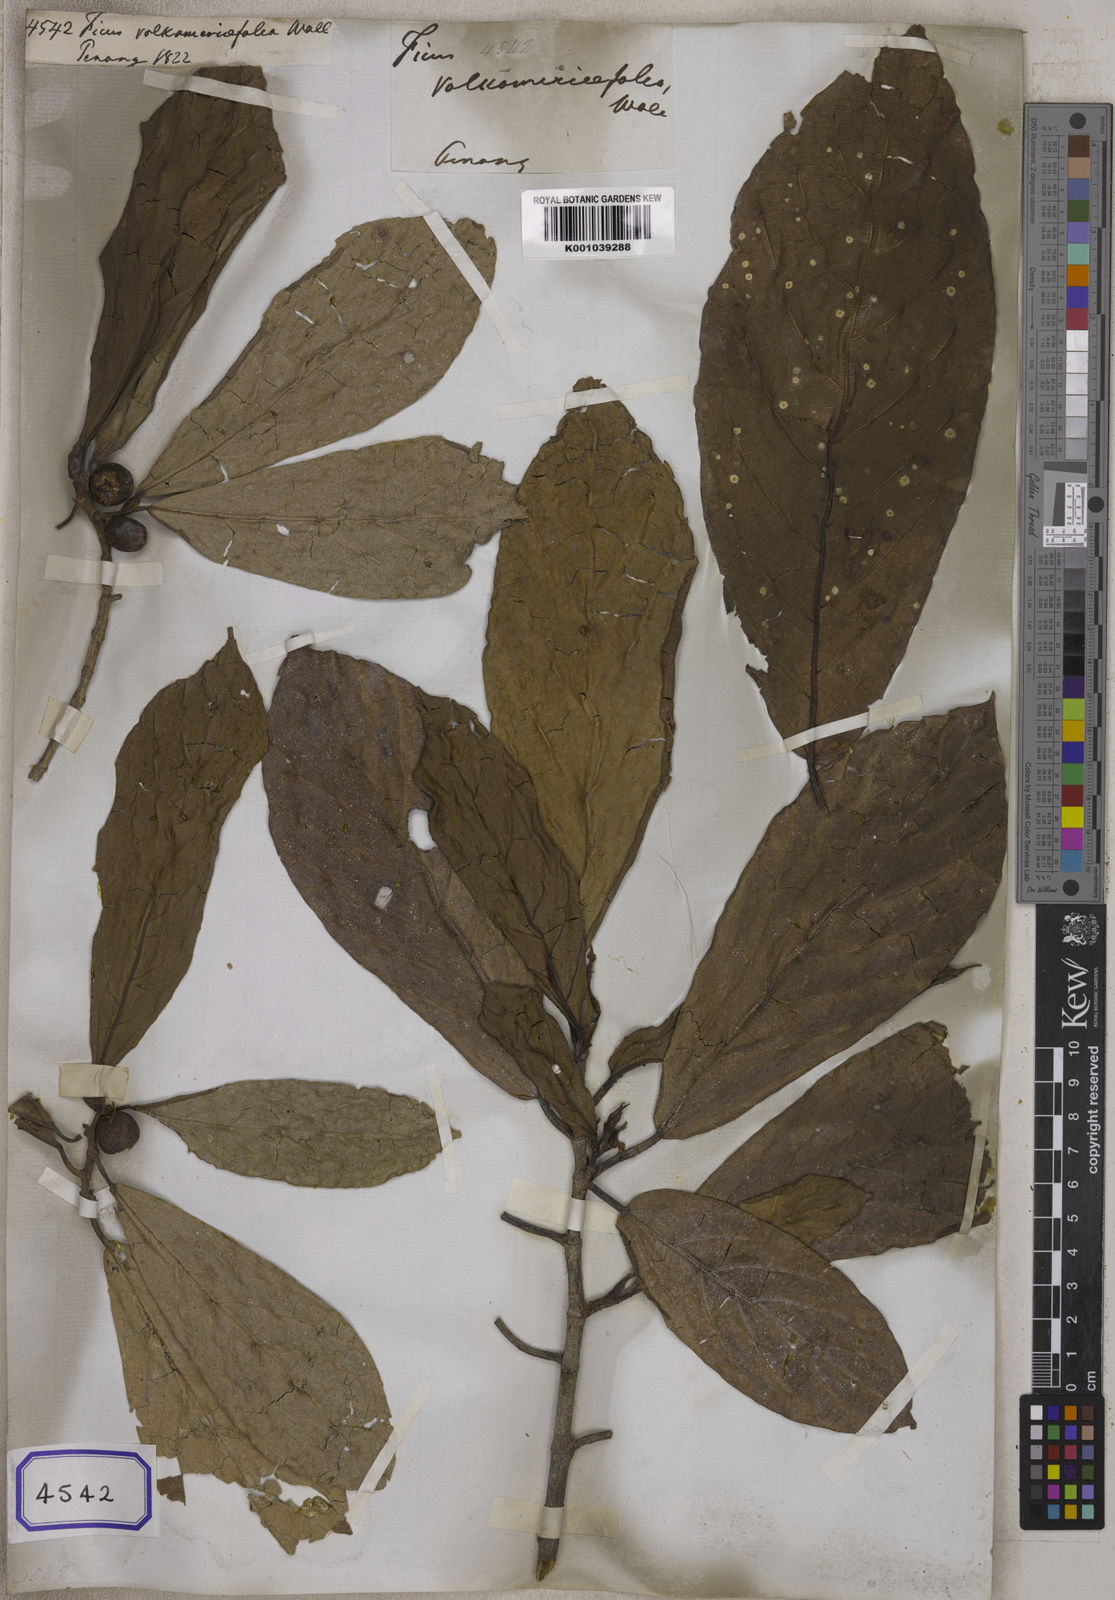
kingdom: Plantae
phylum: Tracheophyta
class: Magnoliopsida
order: Rosales
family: Moraceae
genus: Ficus
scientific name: Ficus
